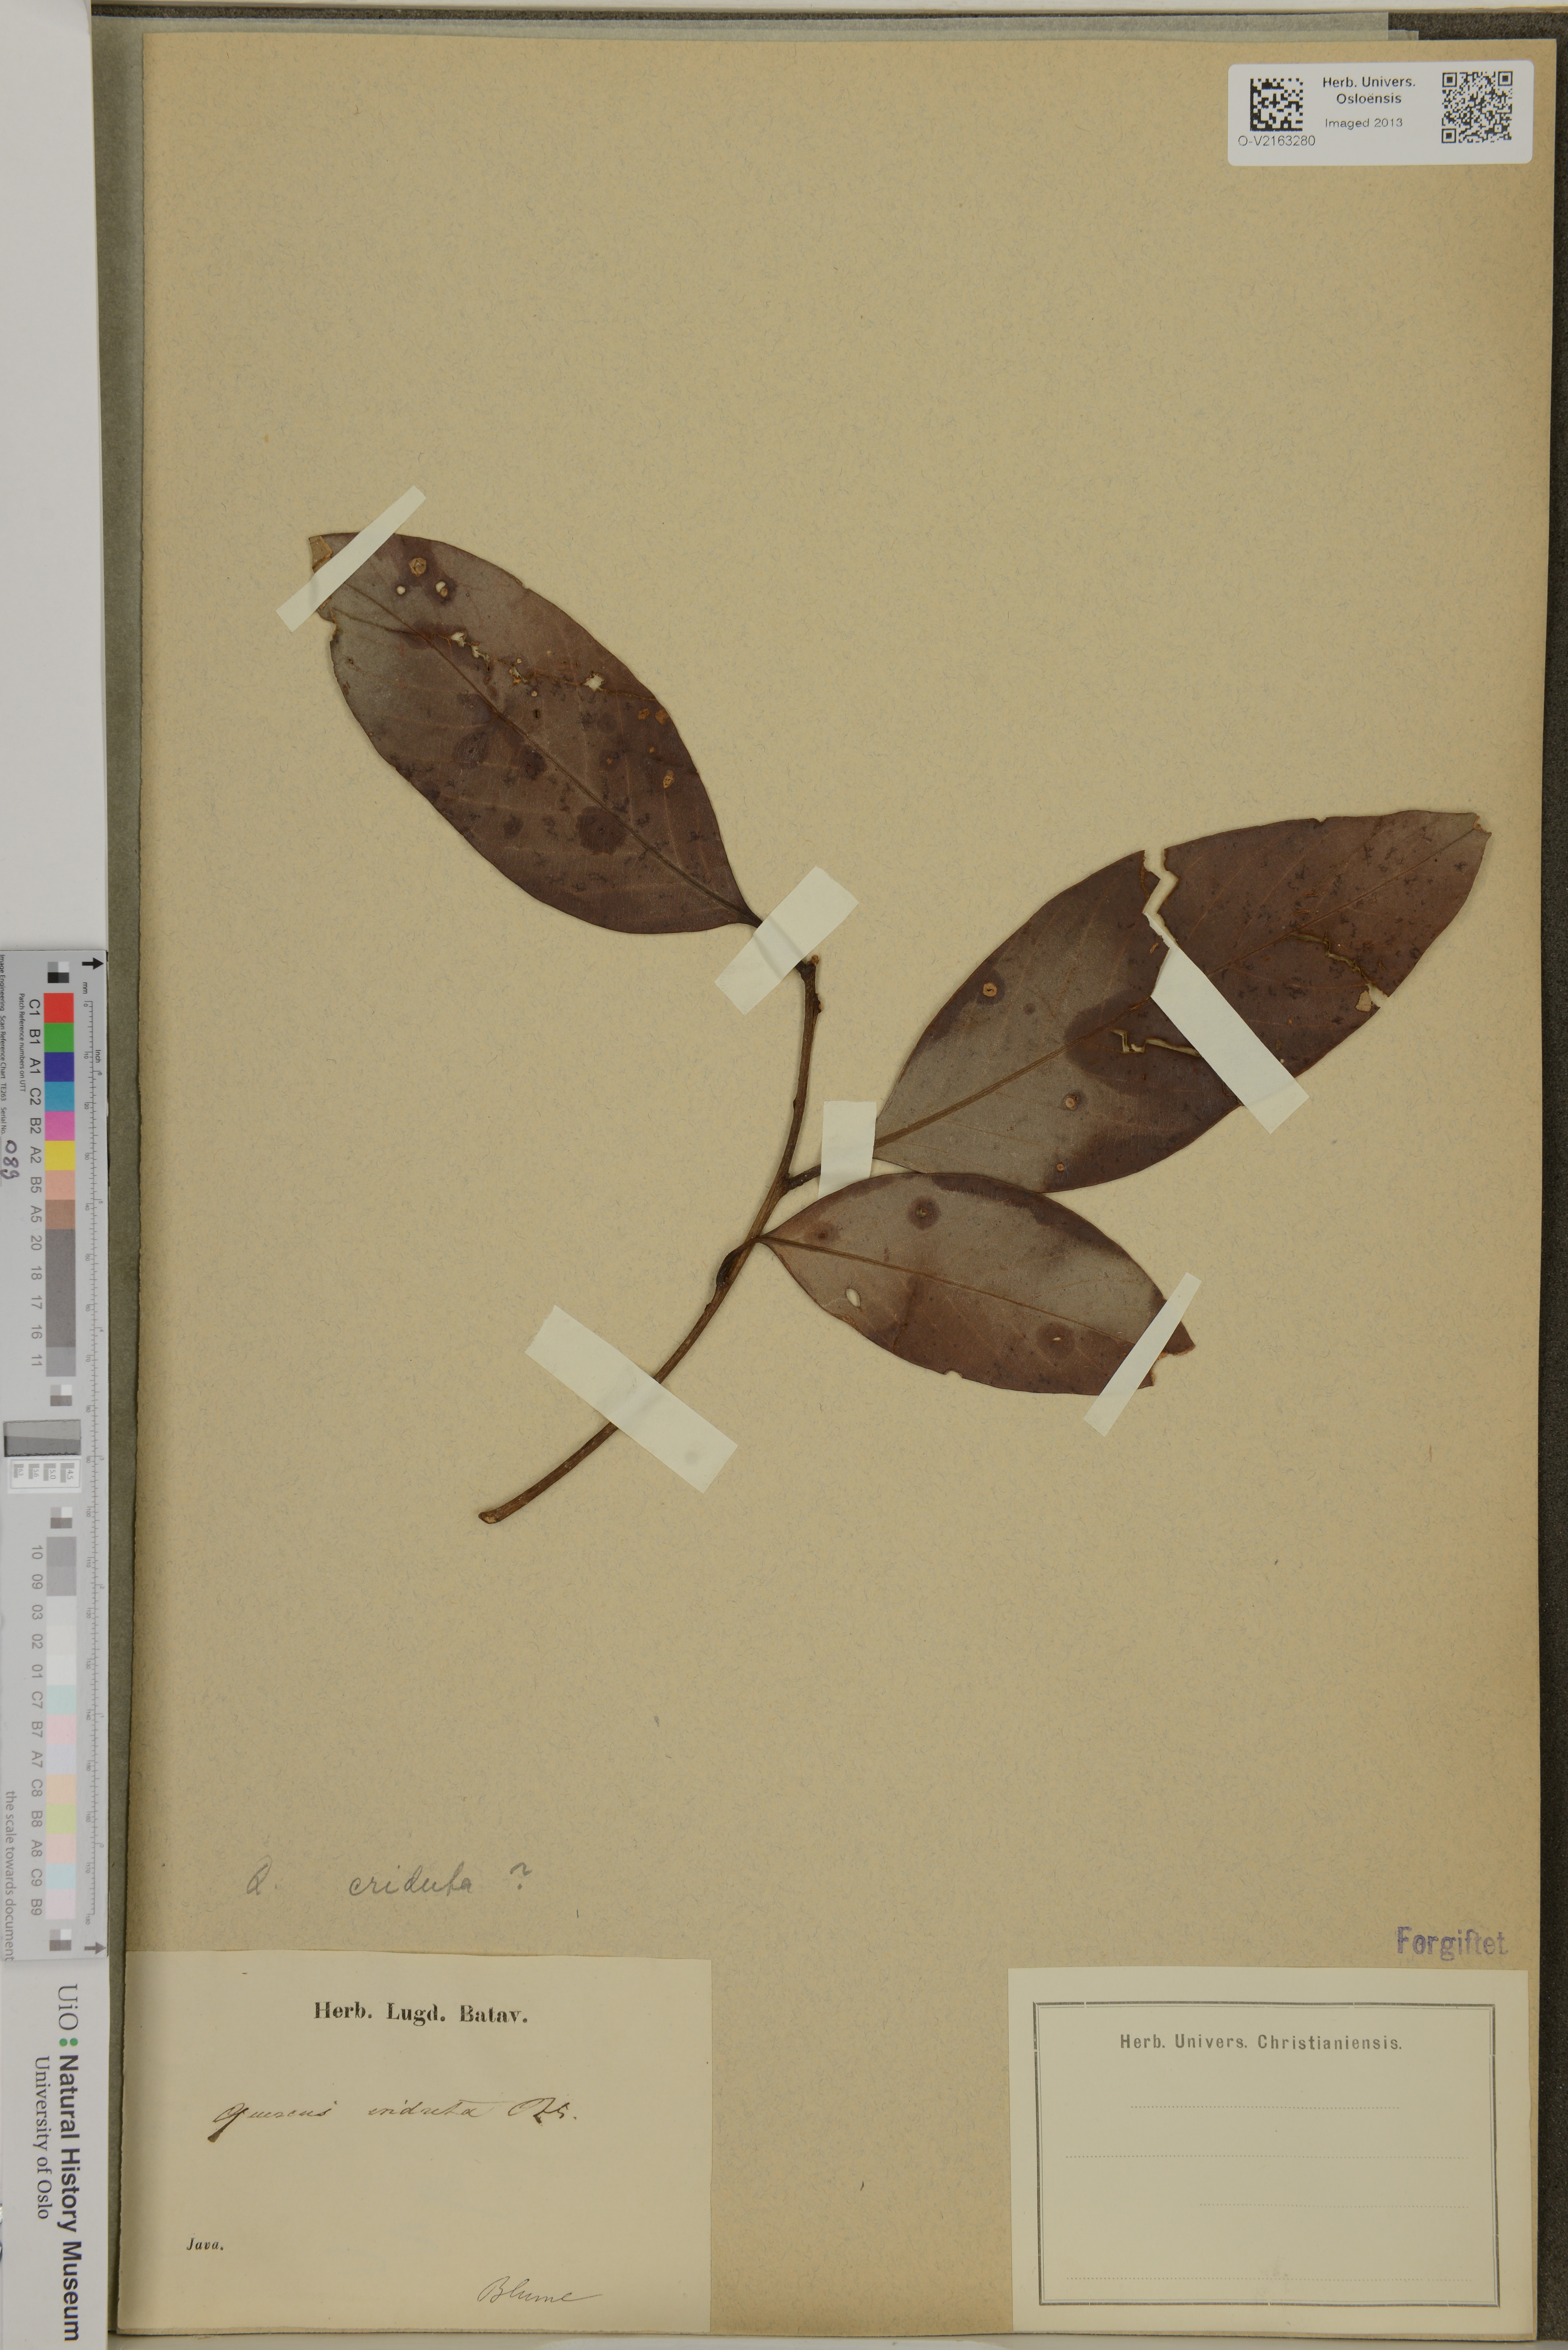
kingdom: Plantae
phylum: Tracheophyta
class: Magnoliopsida
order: Fagales
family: Fagaceae
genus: Quercus
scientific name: Quercus
